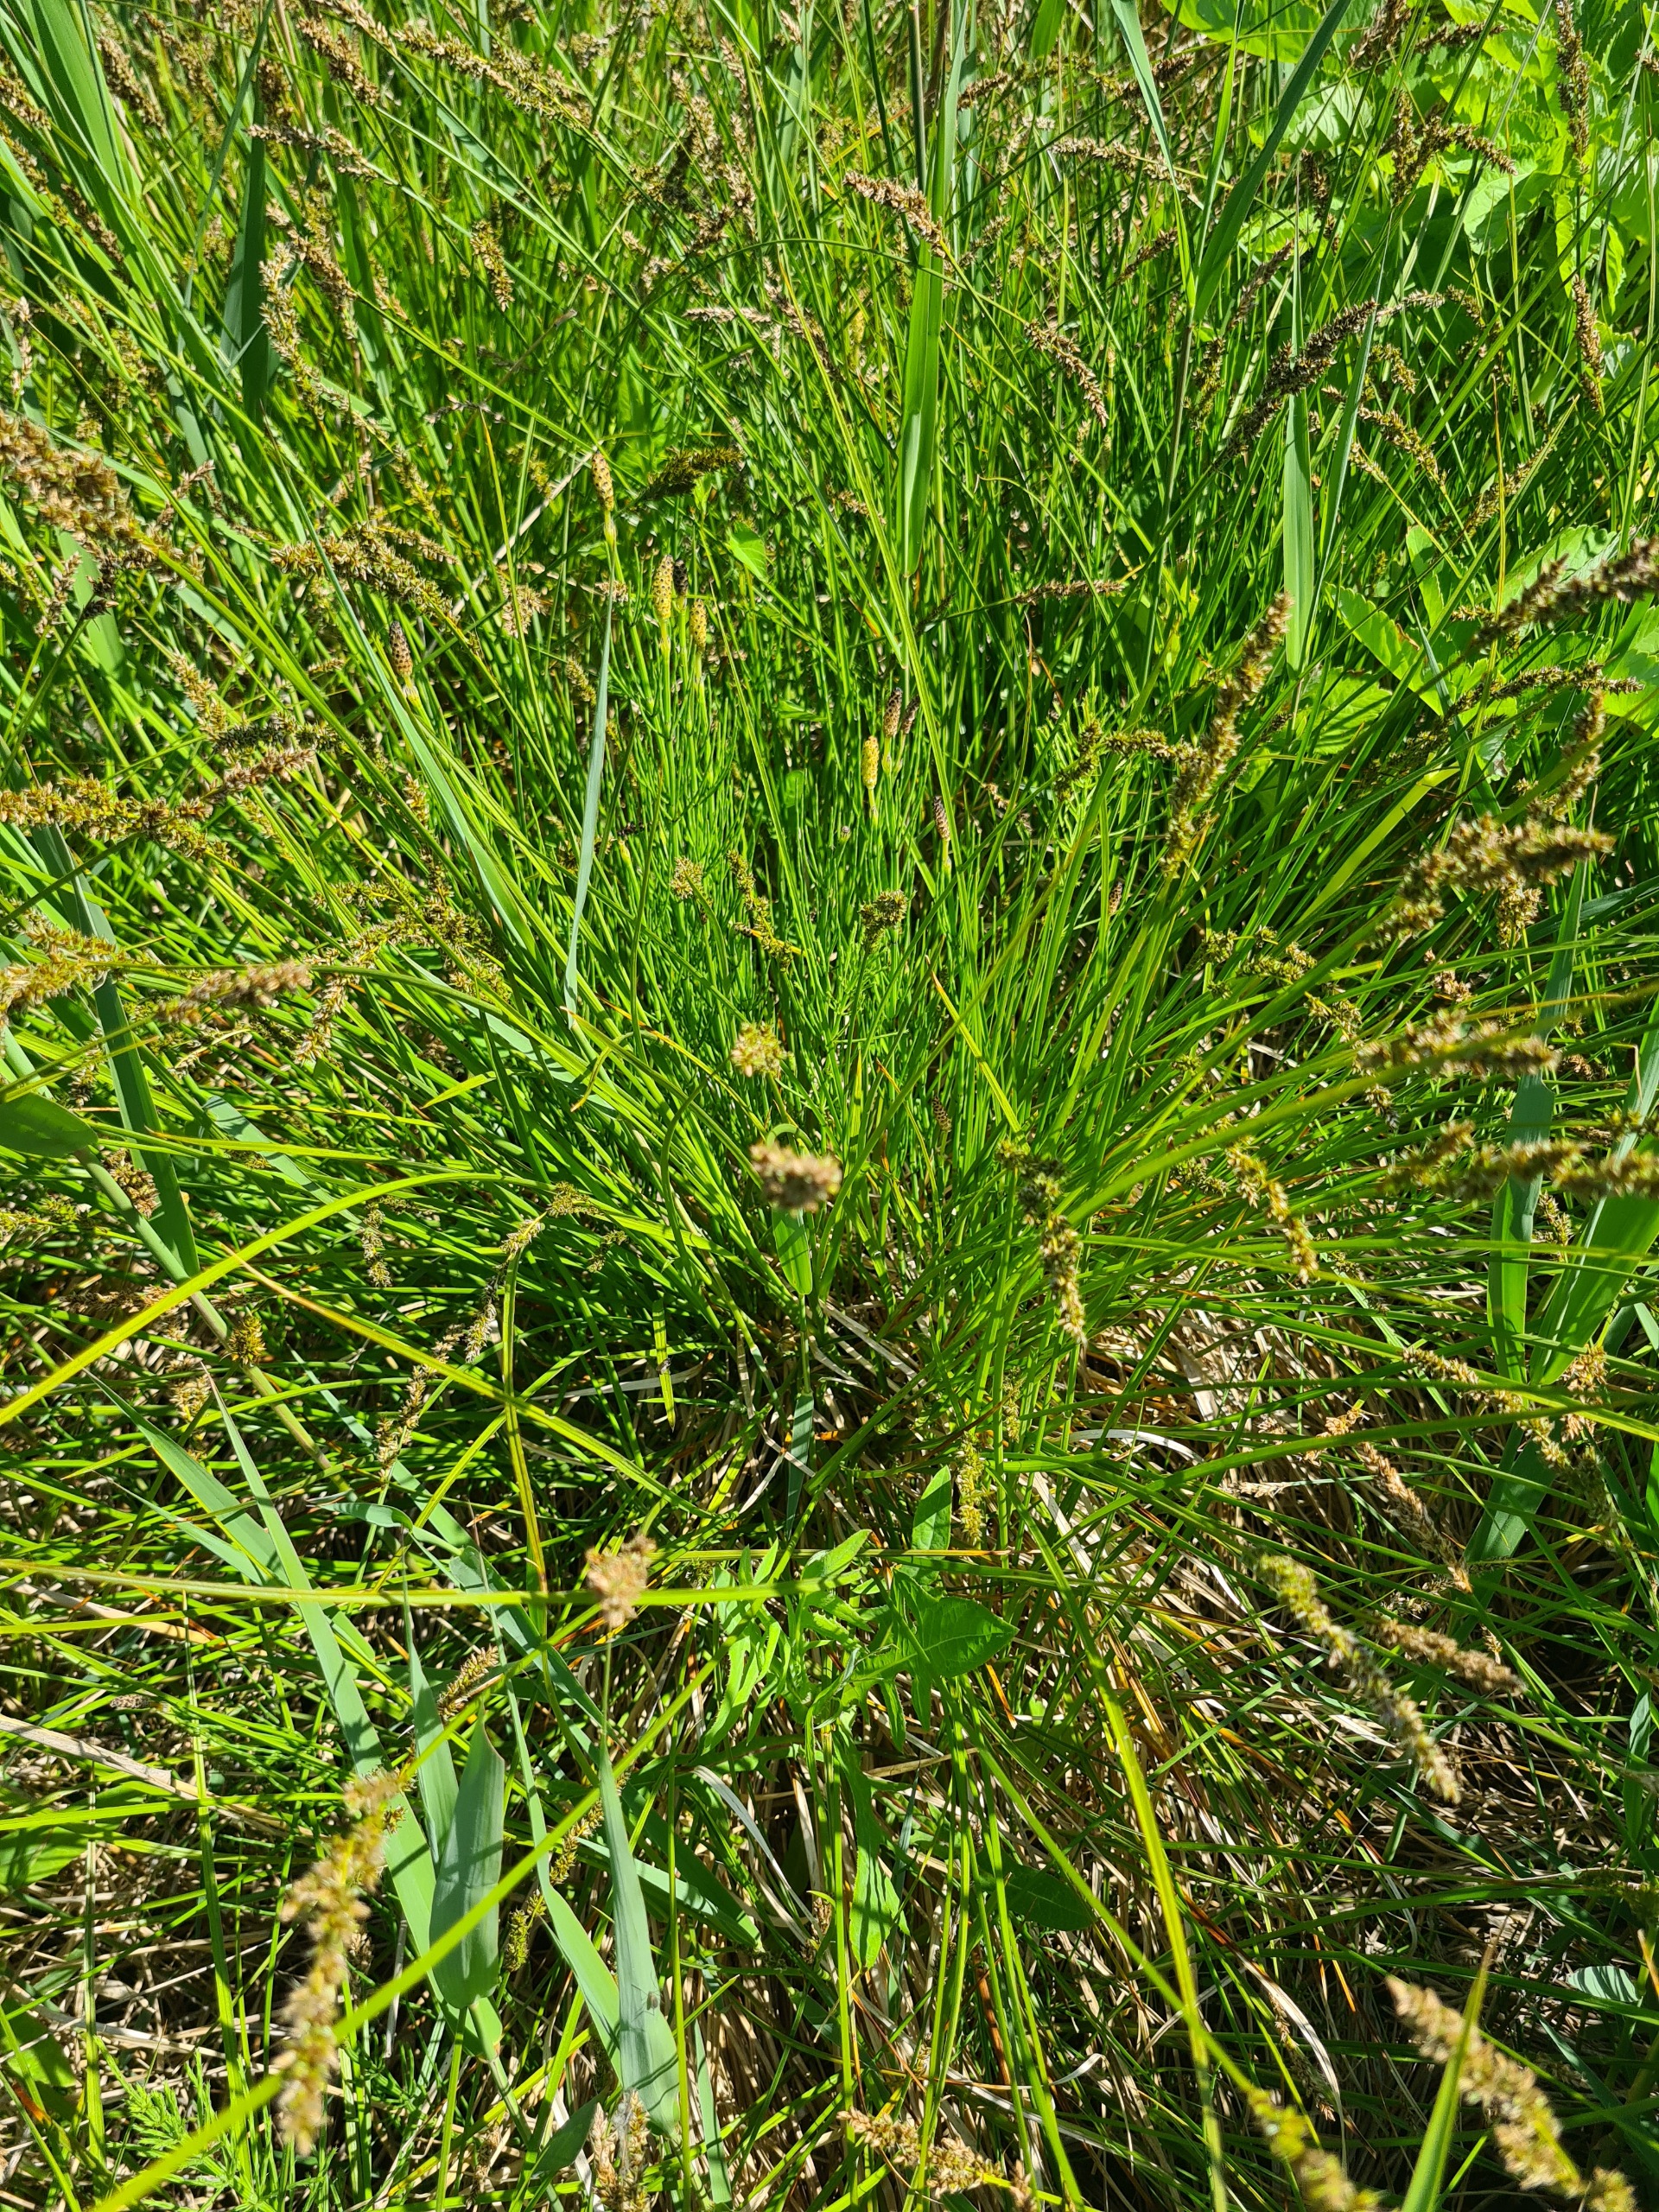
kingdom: Plantae
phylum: Tracheophyta
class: Liliopsida
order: Poales
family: Cyperaceae
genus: Carex
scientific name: Carex paniculata
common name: Top-star
